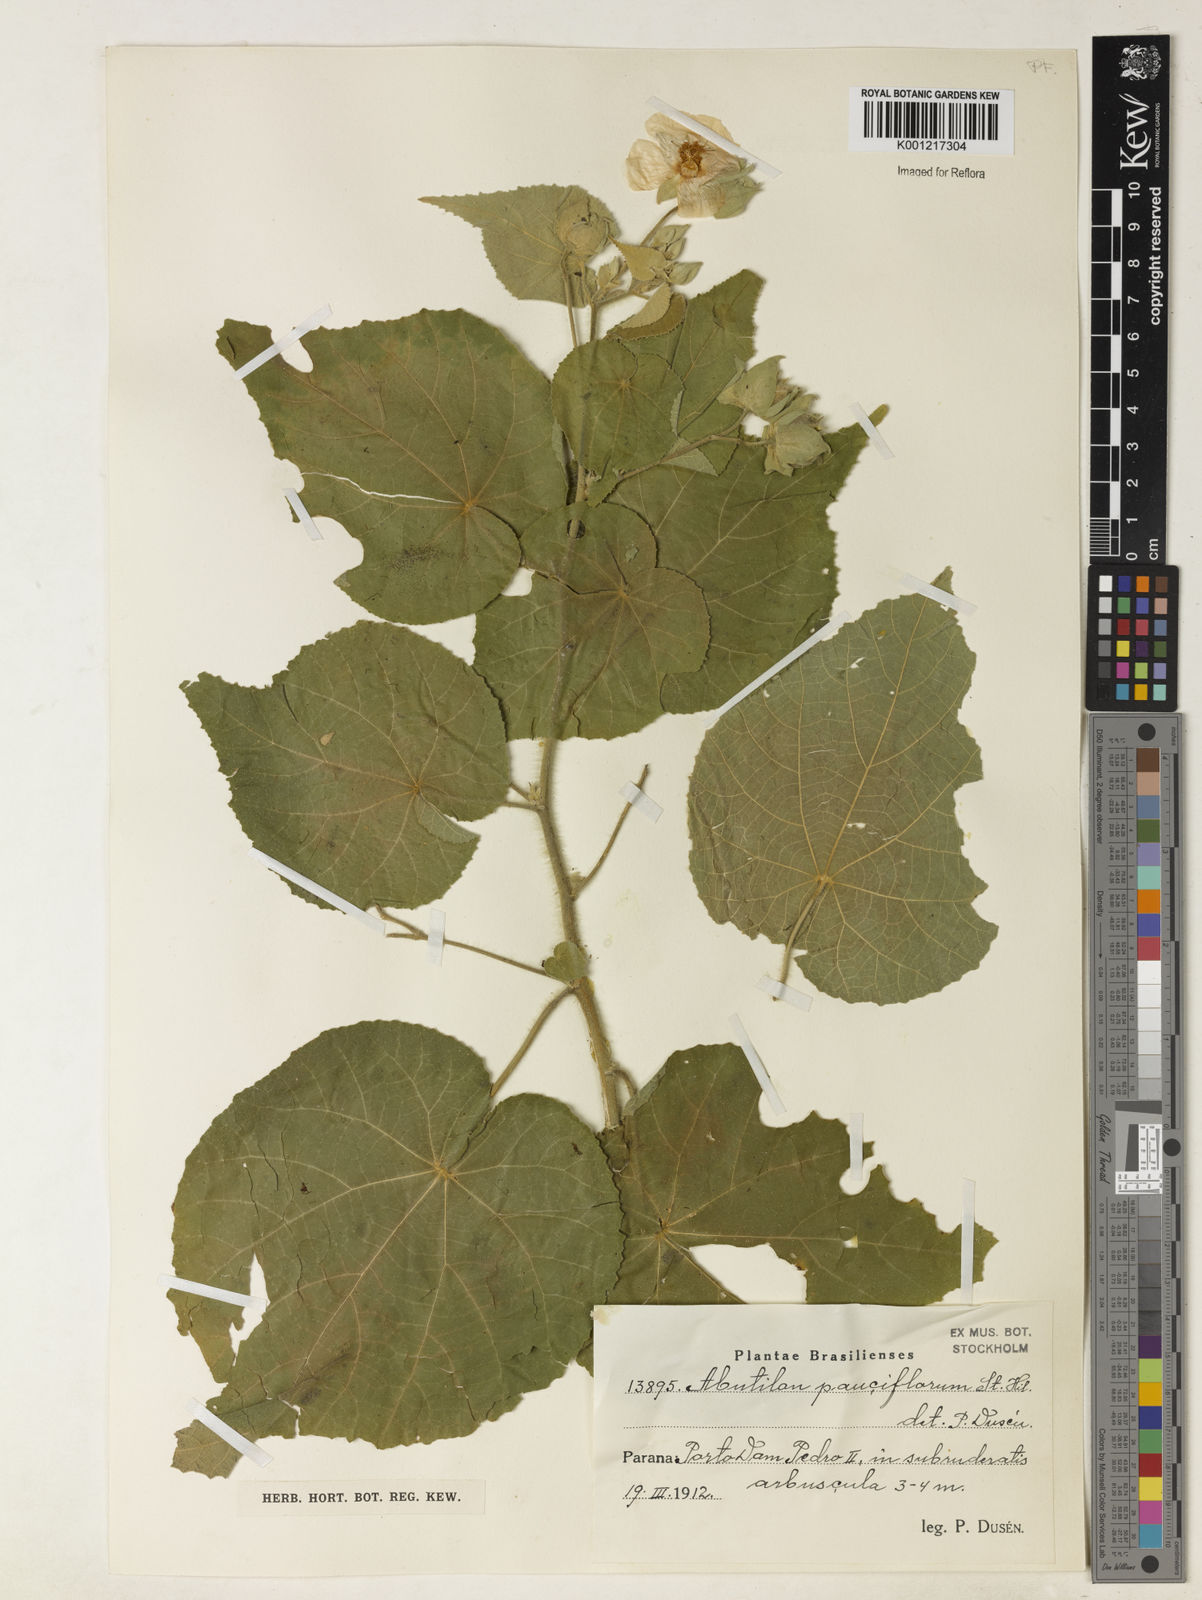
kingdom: Plantae
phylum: Tracheophyta
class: Magnoliopsida
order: Malvales
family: Malvaceae
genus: Callianthe
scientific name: Callianthe pauciflora
